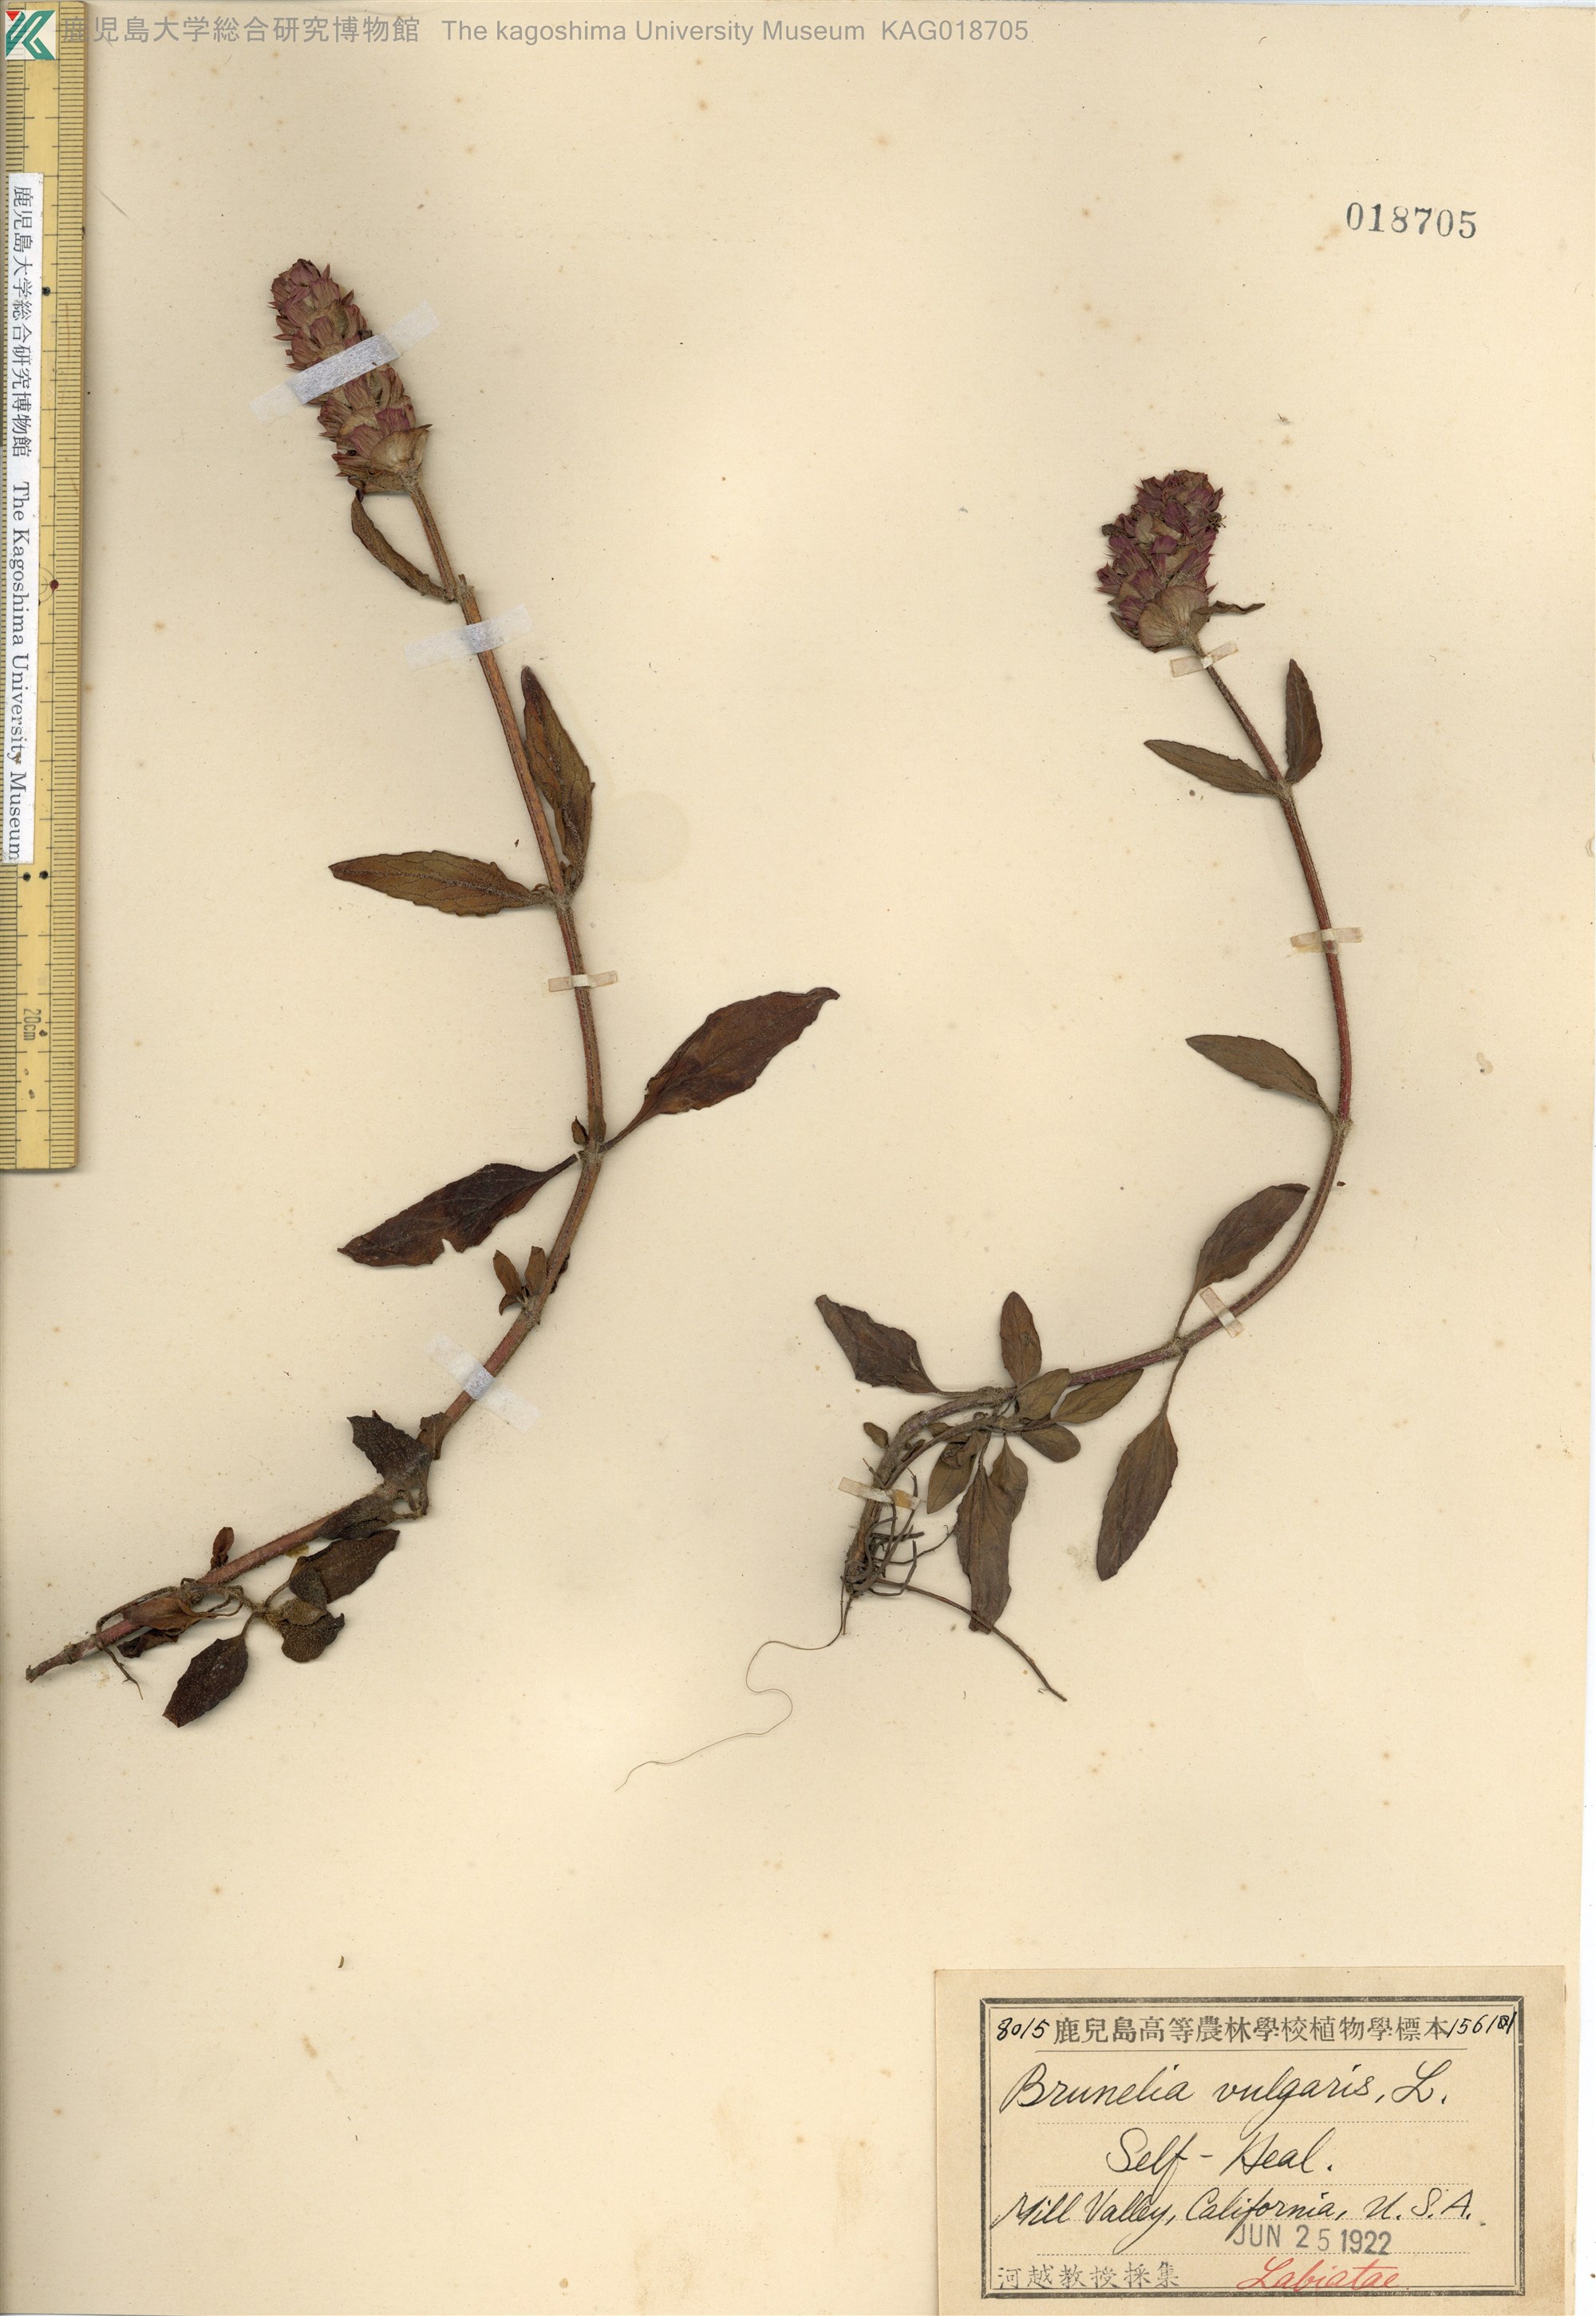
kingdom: Plantae
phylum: Tracheophyta
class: Magnoliopsida
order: Lamiales
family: Lamiaceae
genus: Prunella
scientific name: Prunella vulgaris
